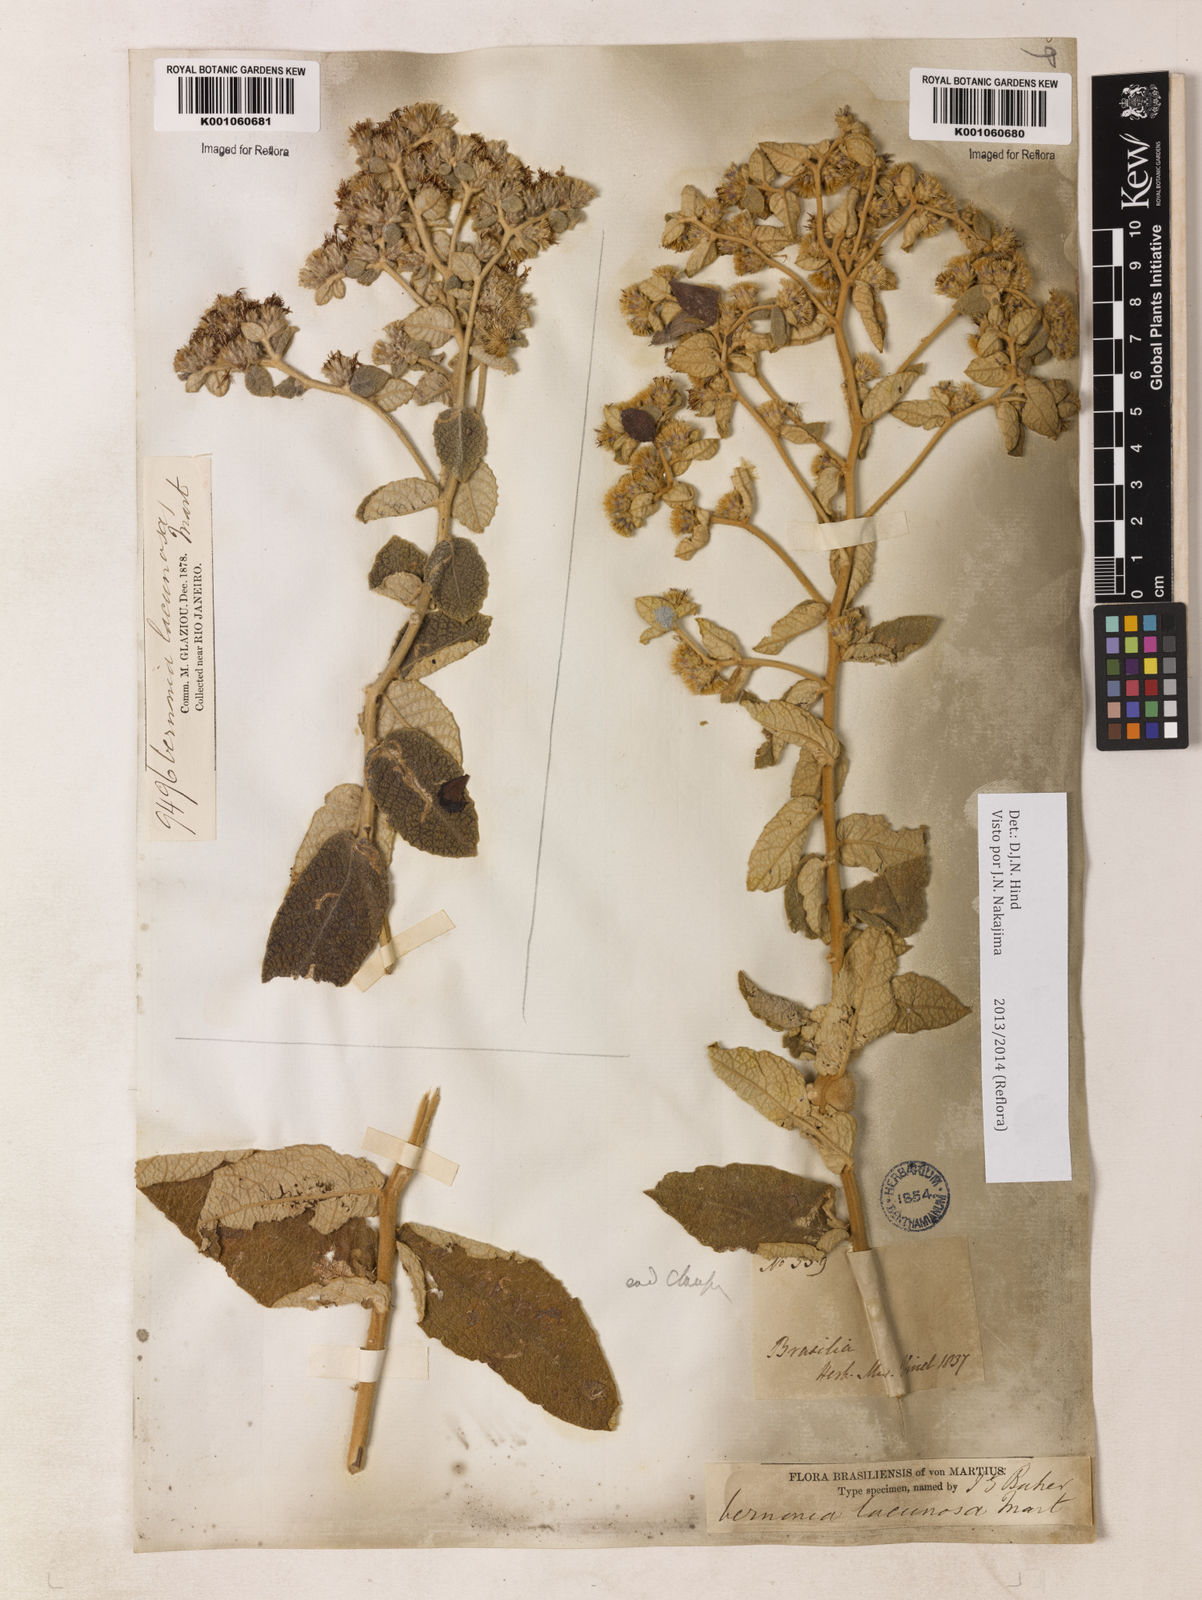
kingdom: Plantae
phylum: Tracheophyta
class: Magnoliopsida
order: Asterales
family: Asteraceae
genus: Lessingianthus
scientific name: Lessingianthus lacunosus
